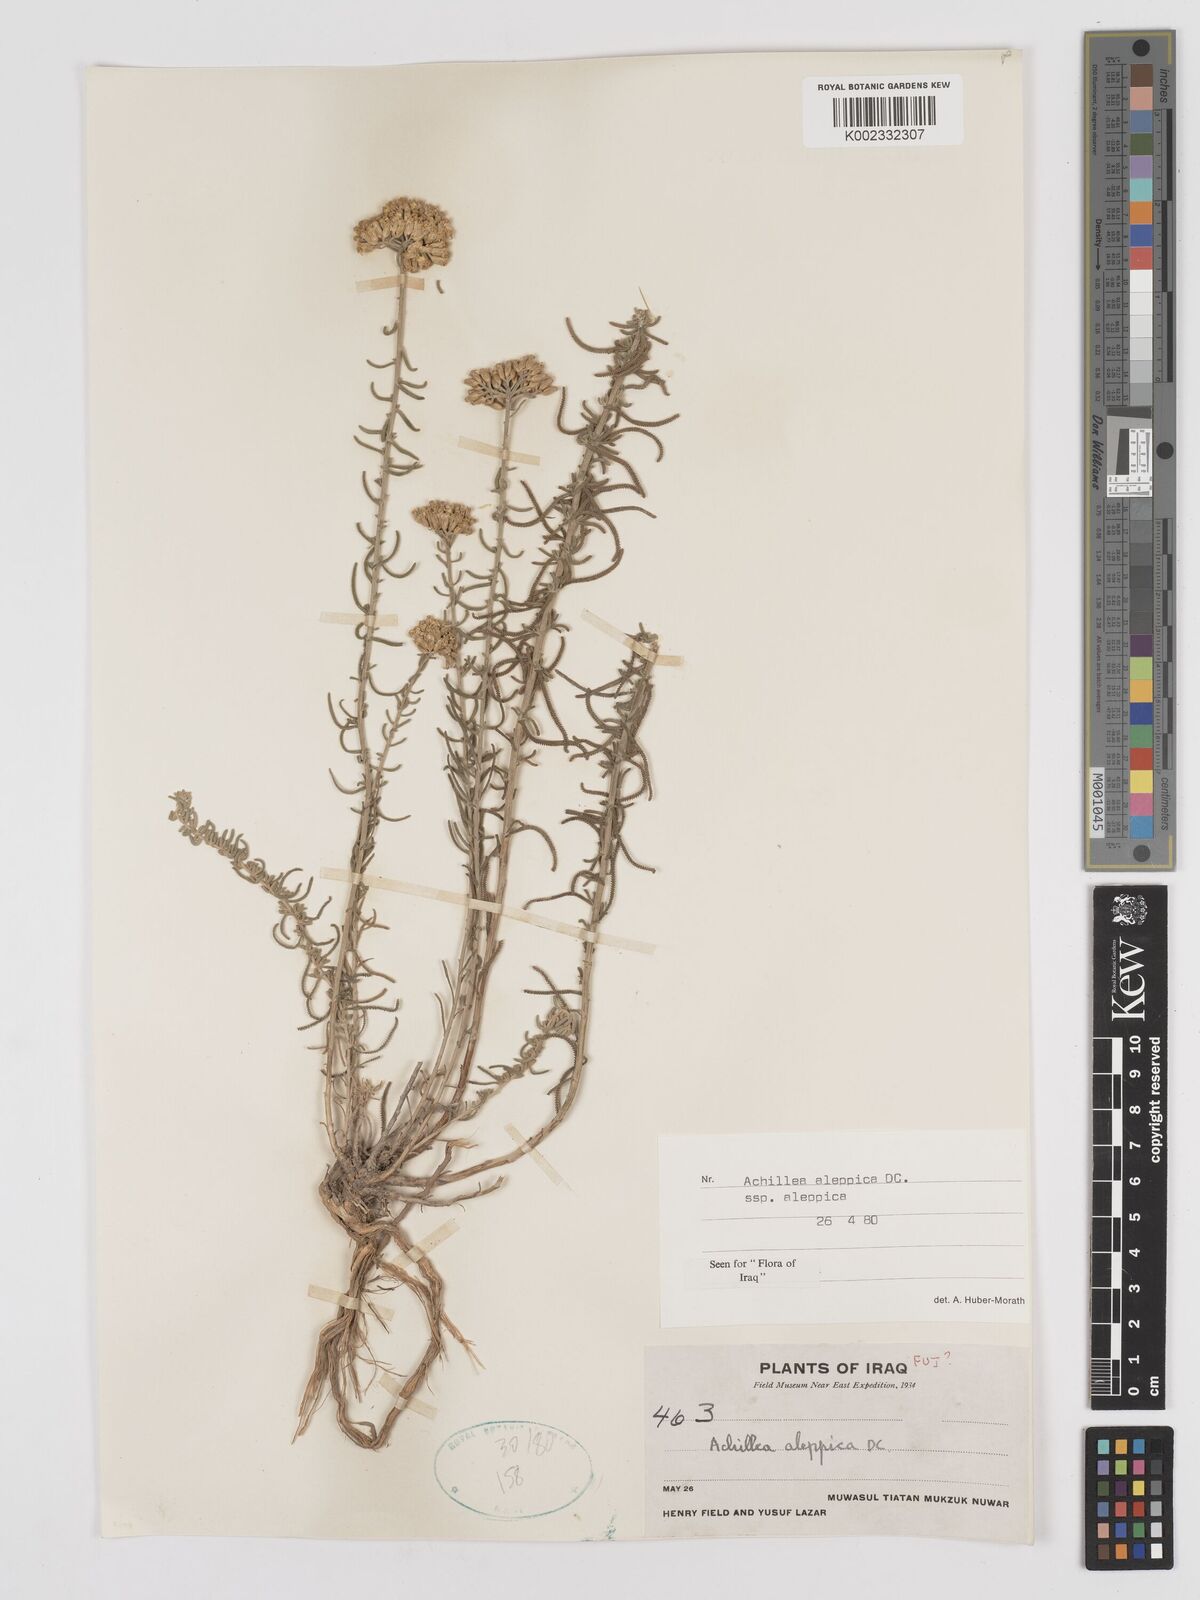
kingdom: Plantae
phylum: Tracheophyta
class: Magnoliopsida
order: Asterales
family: Asteraceae
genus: Achillea
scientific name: Achillea aleppica
